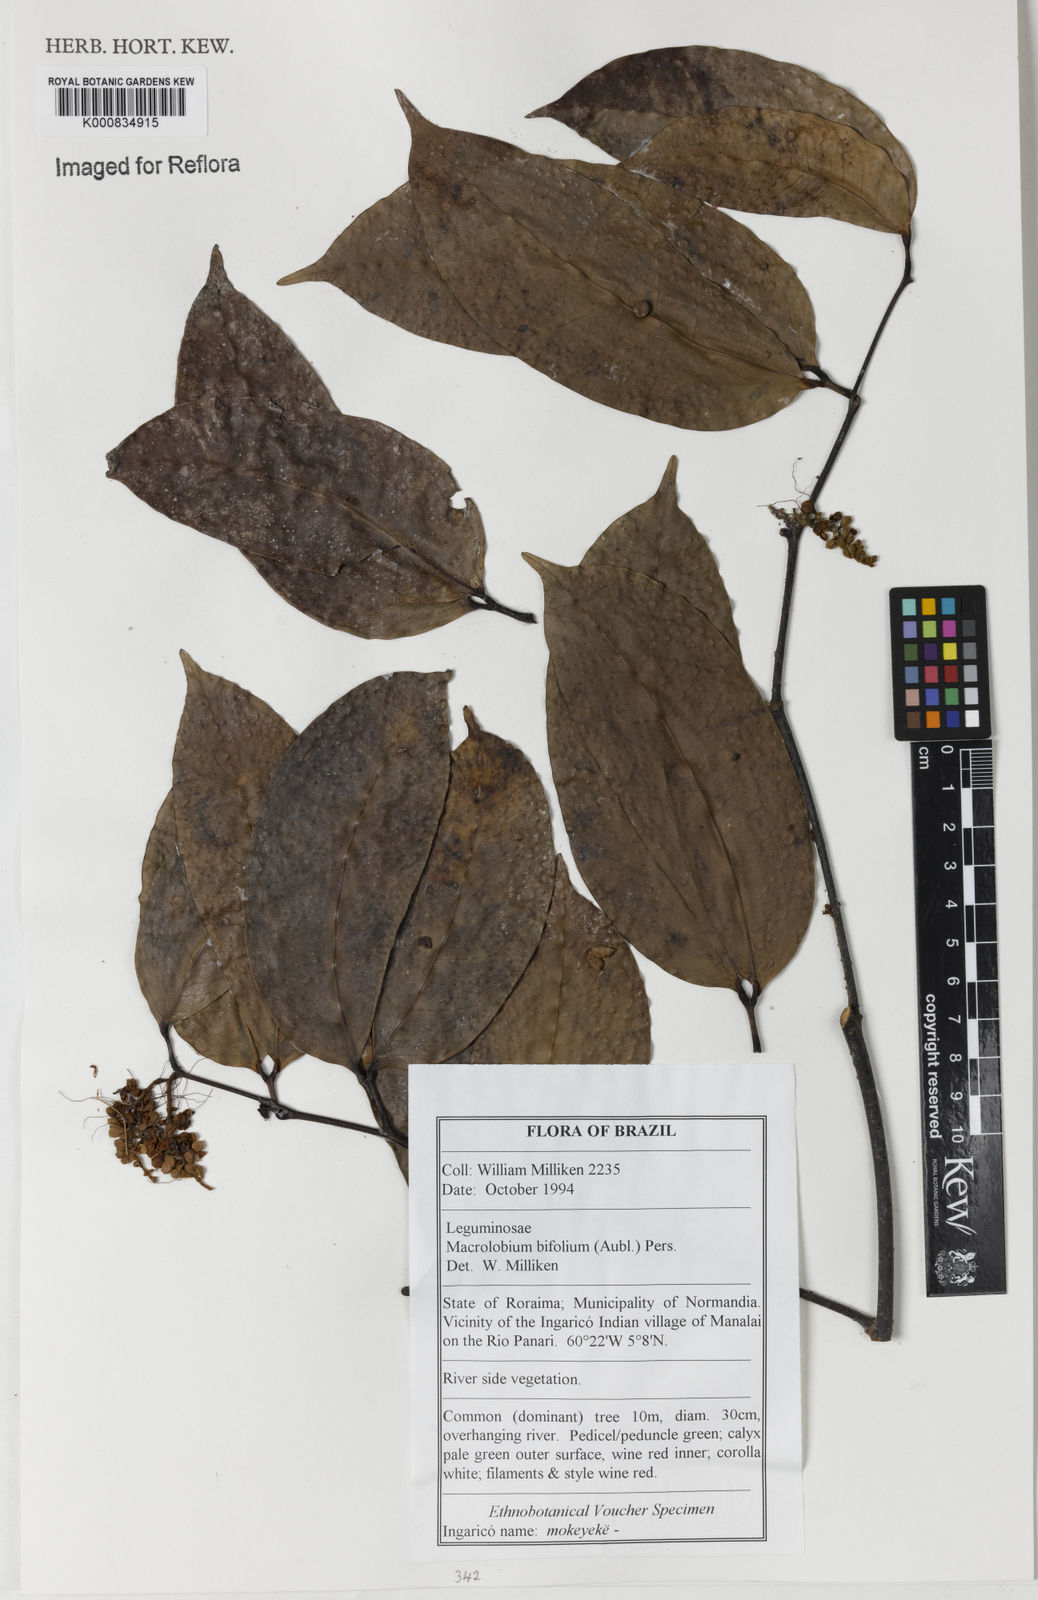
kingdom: Plantae
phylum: Tracheophyta
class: Magnoliopsida
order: Fabales
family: Fabaceae
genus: Macrolobium
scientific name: Macrolobium bifolium
